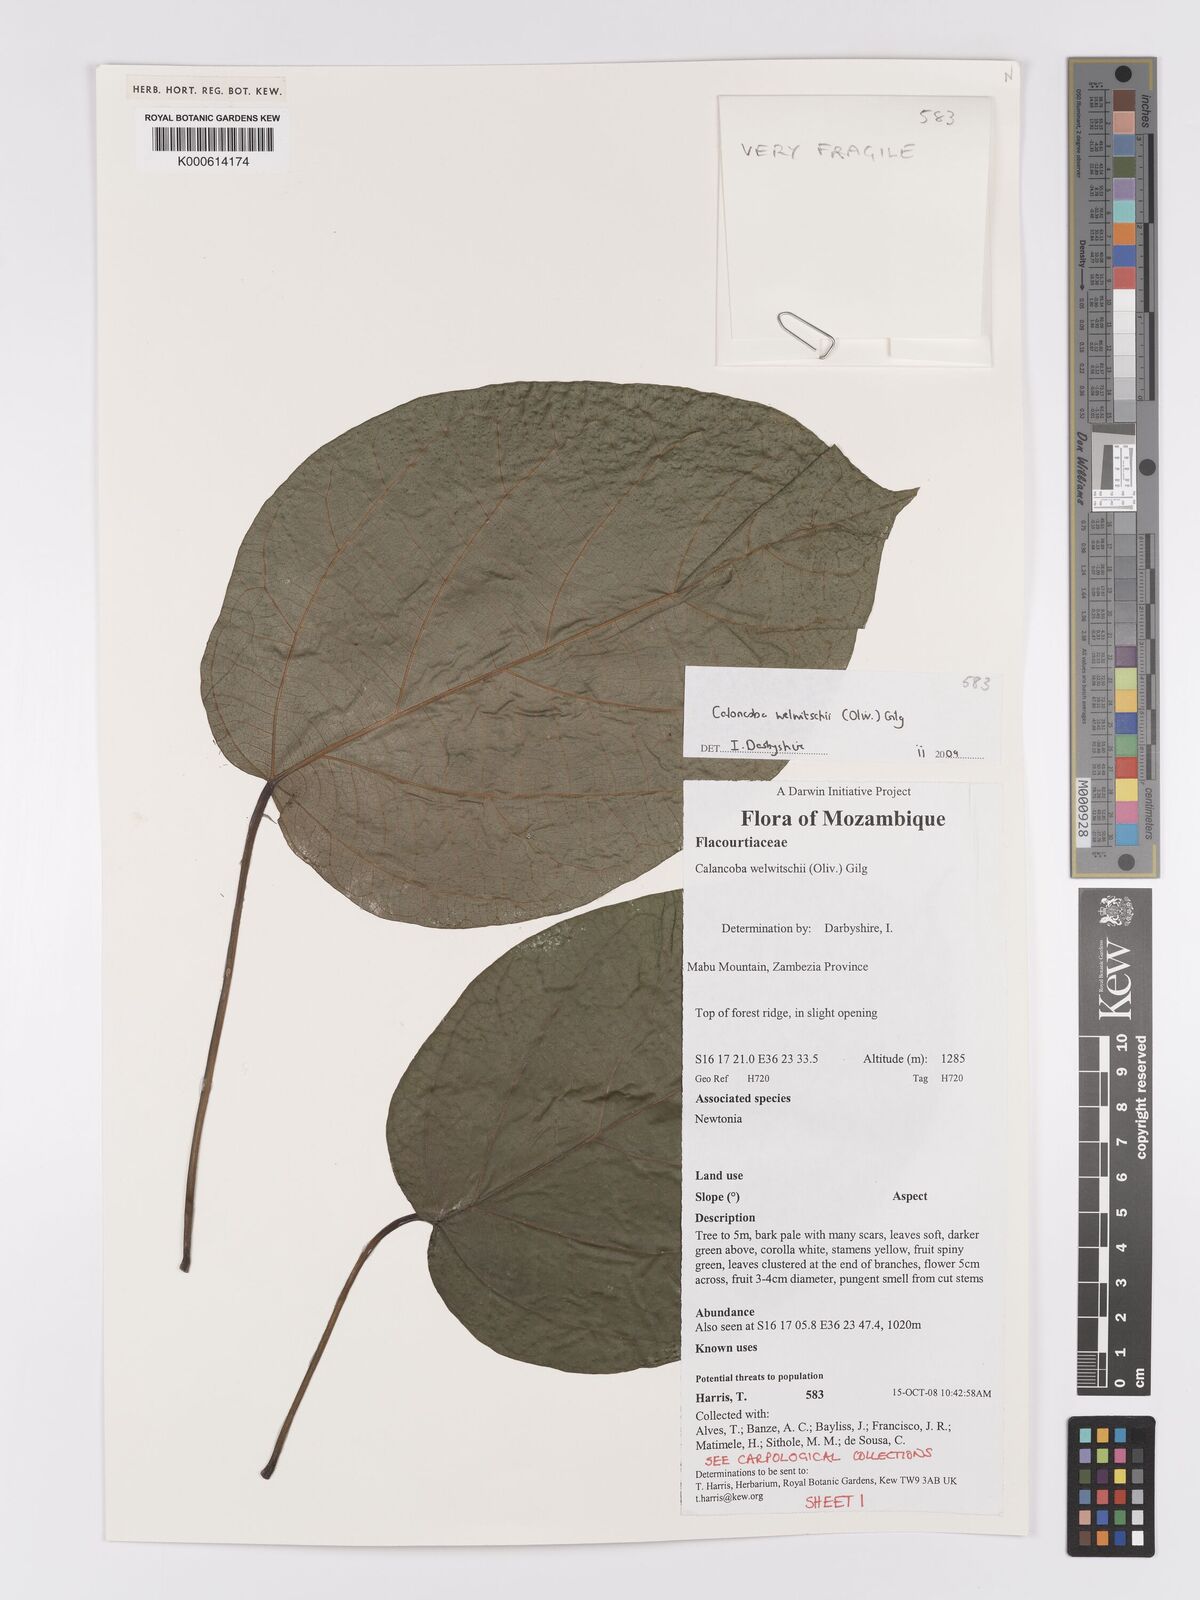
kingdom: Plantae
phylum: Tracheophyta
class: Magnoliopsida
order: Malpighiales
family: Achariaceae
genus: Caloncoba
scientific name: Caloncoba welwitschii
